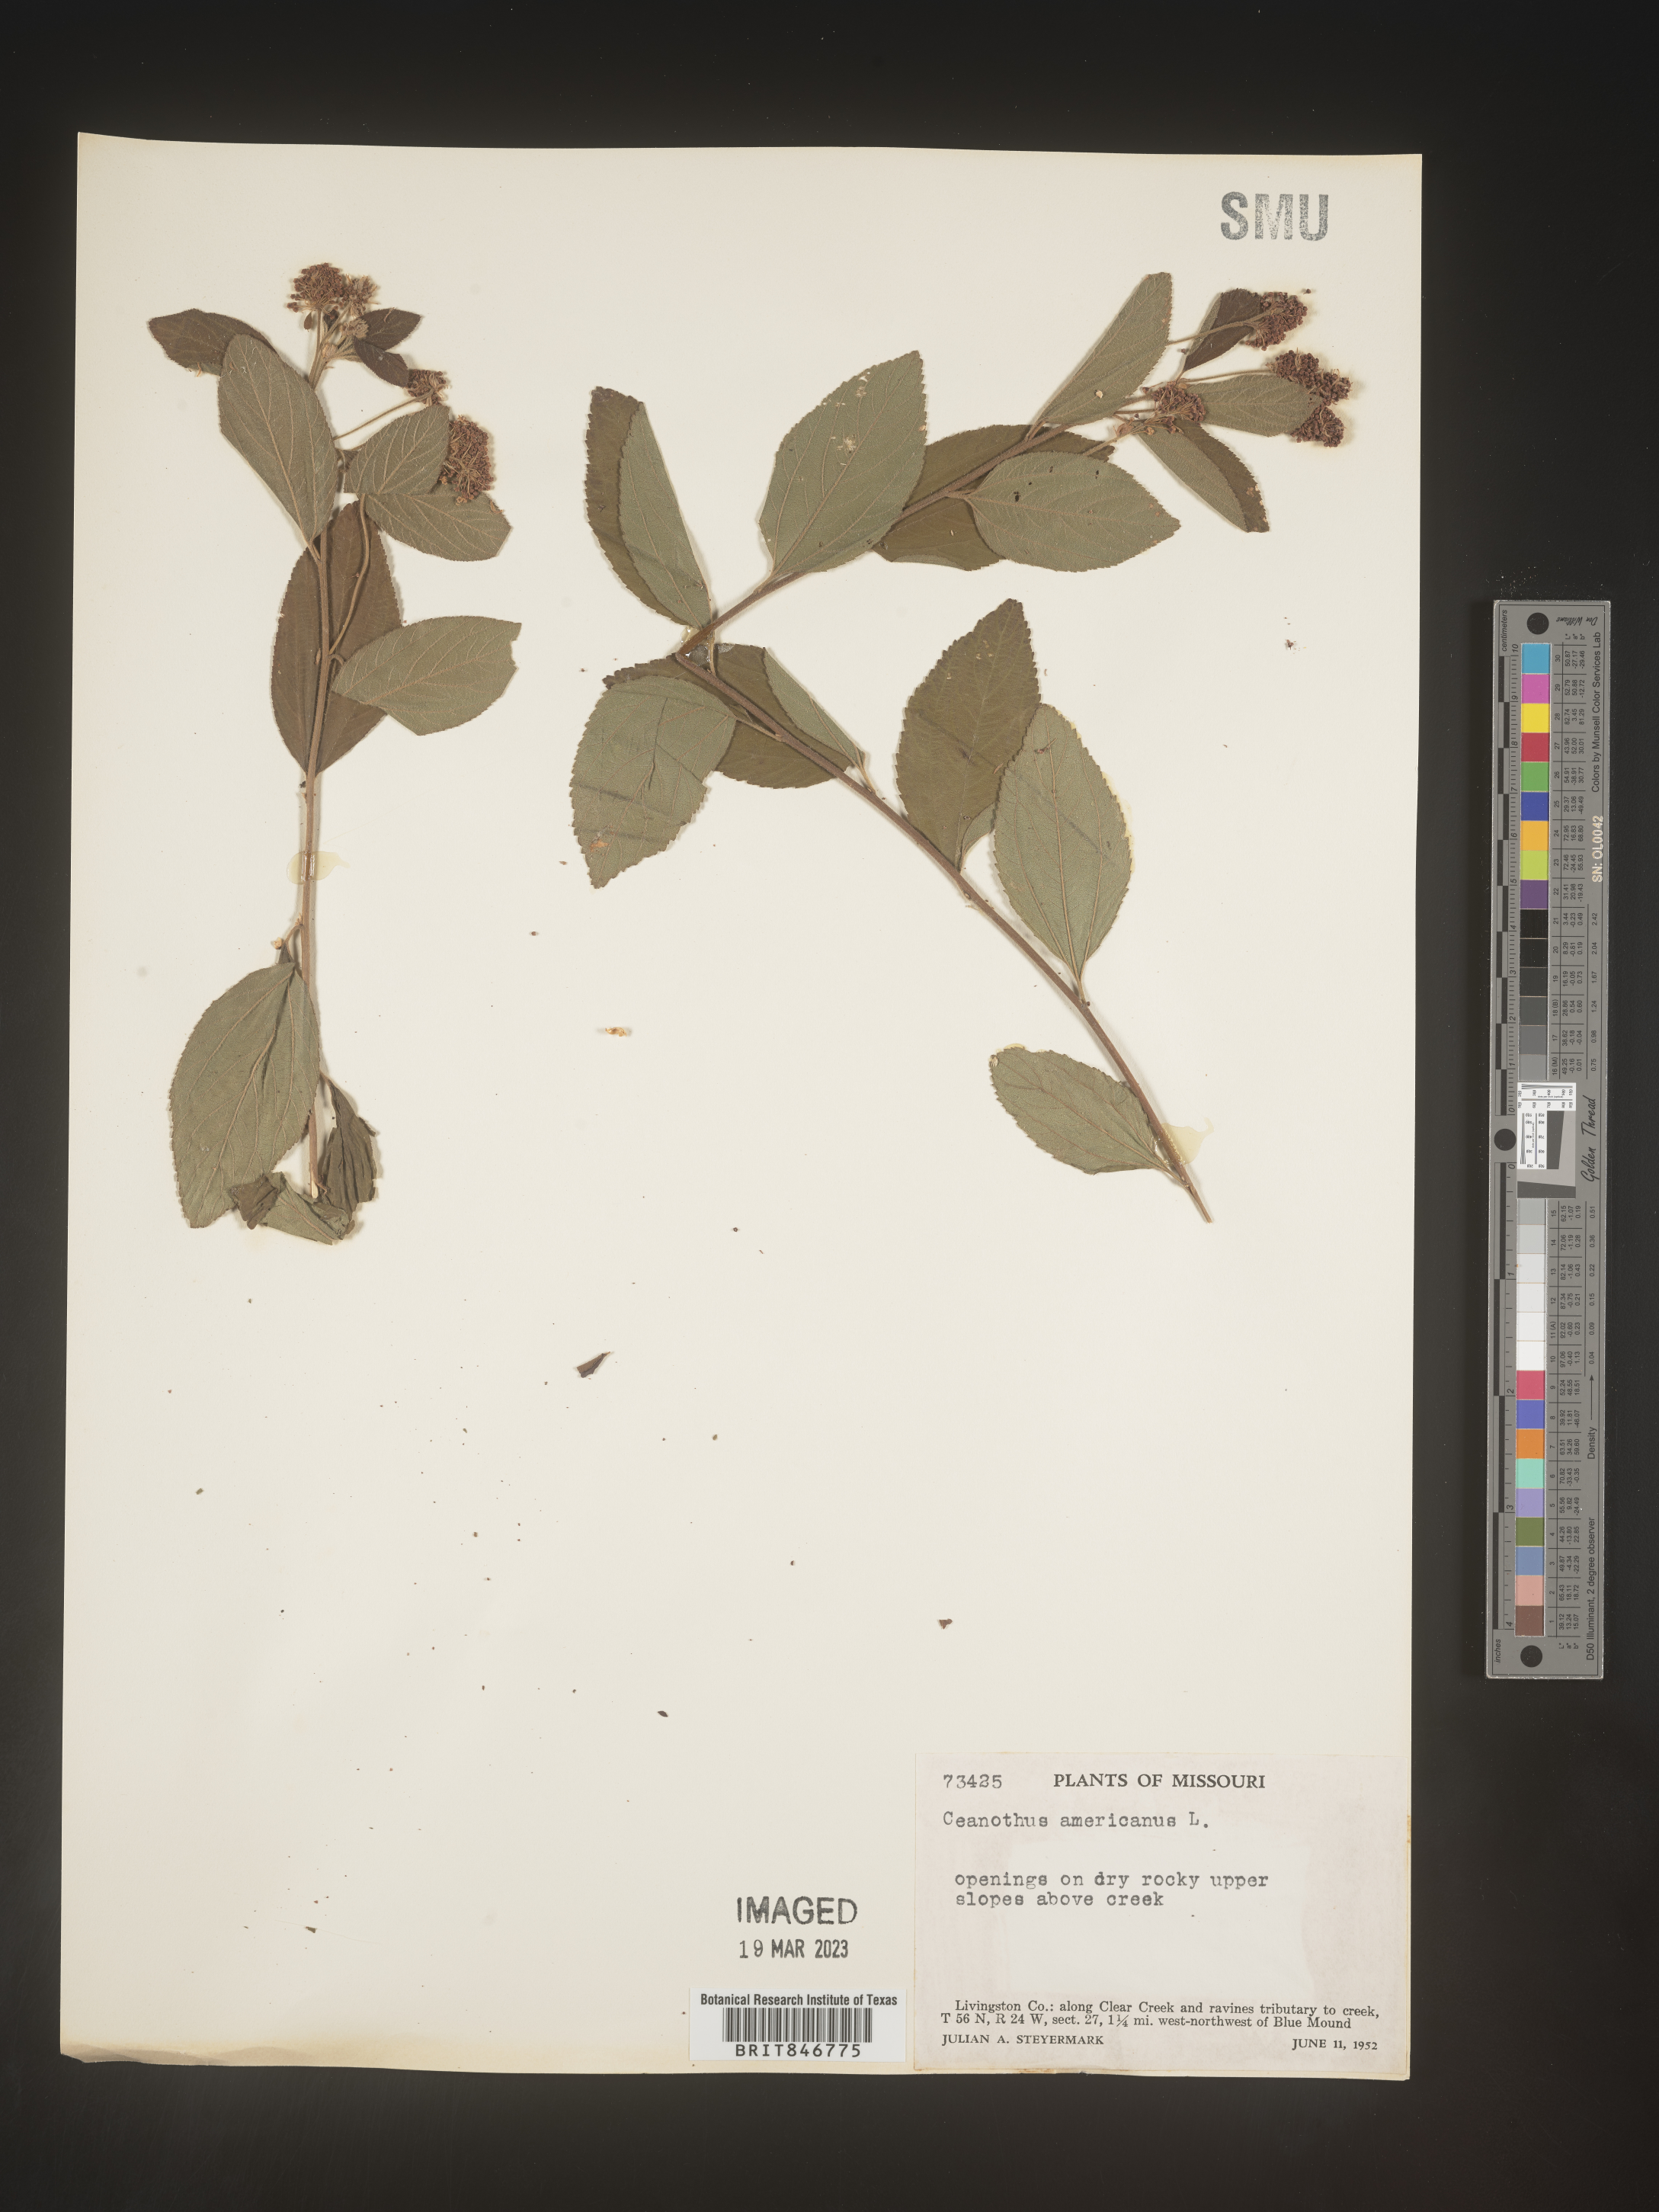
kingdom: Plantae
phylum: Tracheophyta
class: Magnoliopsida
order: Rosales
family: Rhamnaceae
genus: Ceanothus
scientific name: Ceanothus americanus
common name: Redroot
